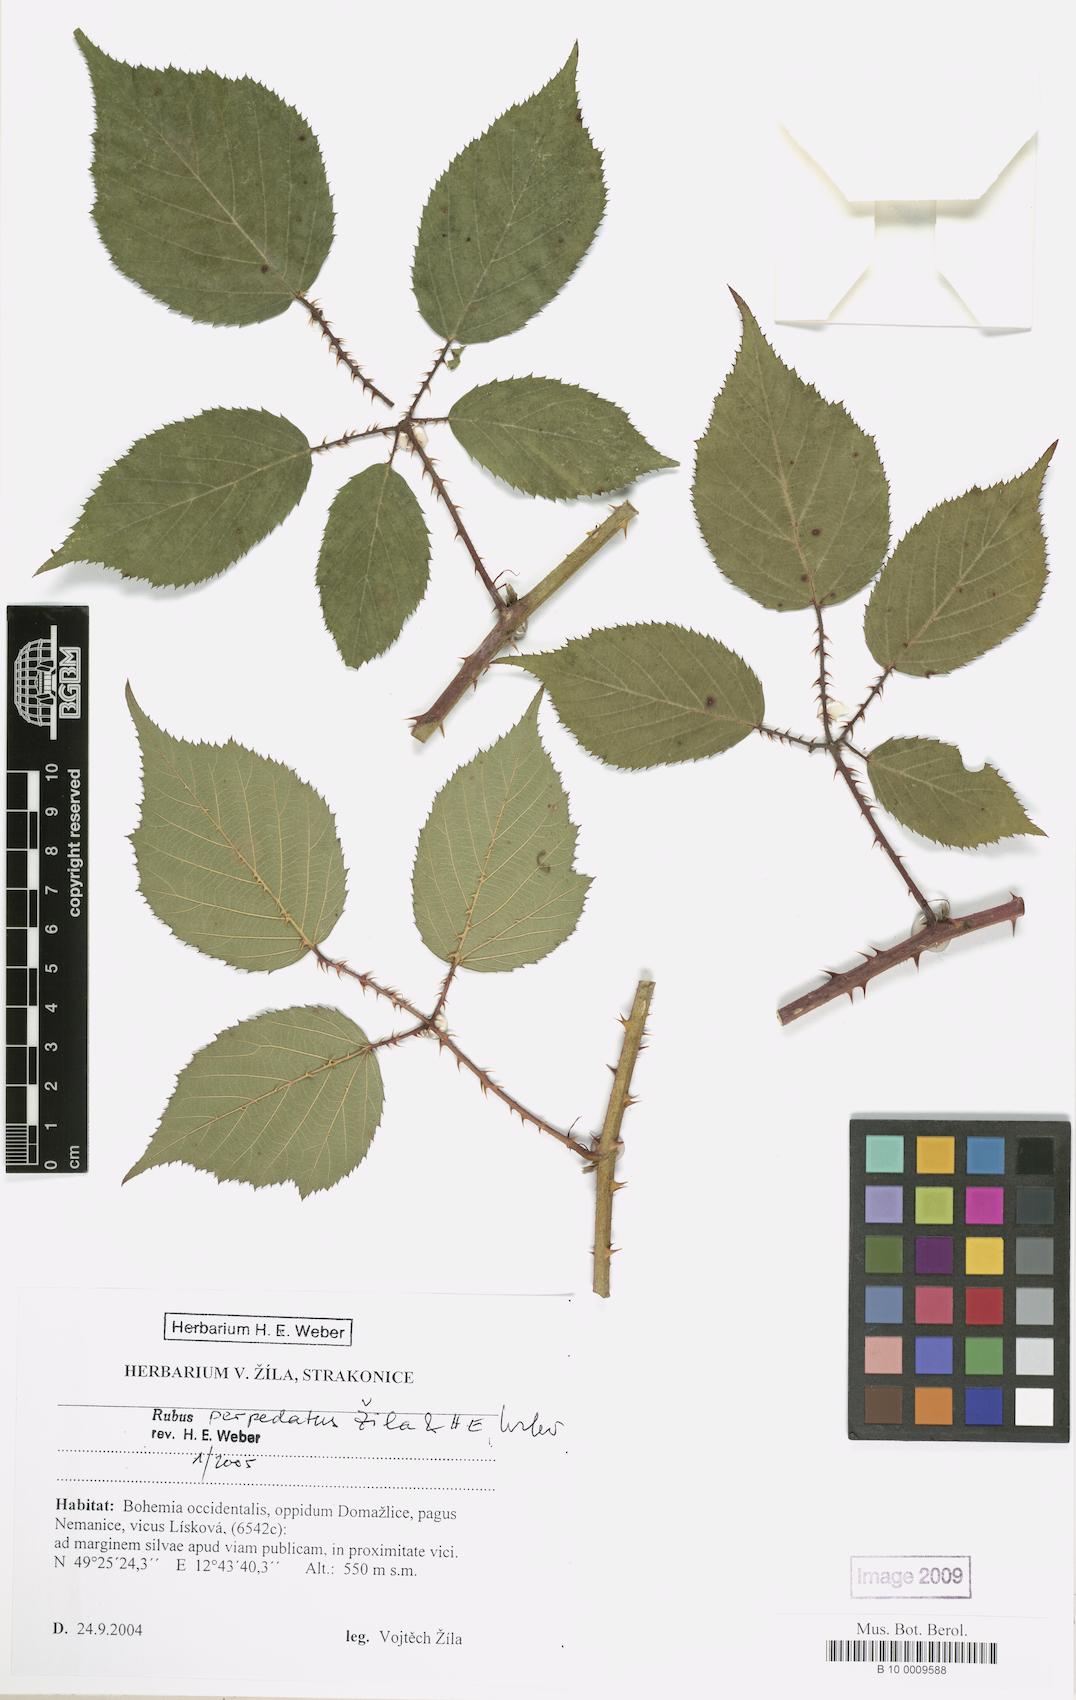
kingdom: Plantae
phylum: Tracheophyta
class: Magnoliopsida
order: Rosales
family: Rosaceae
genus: Rubus
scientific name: Rubus perpedatus
